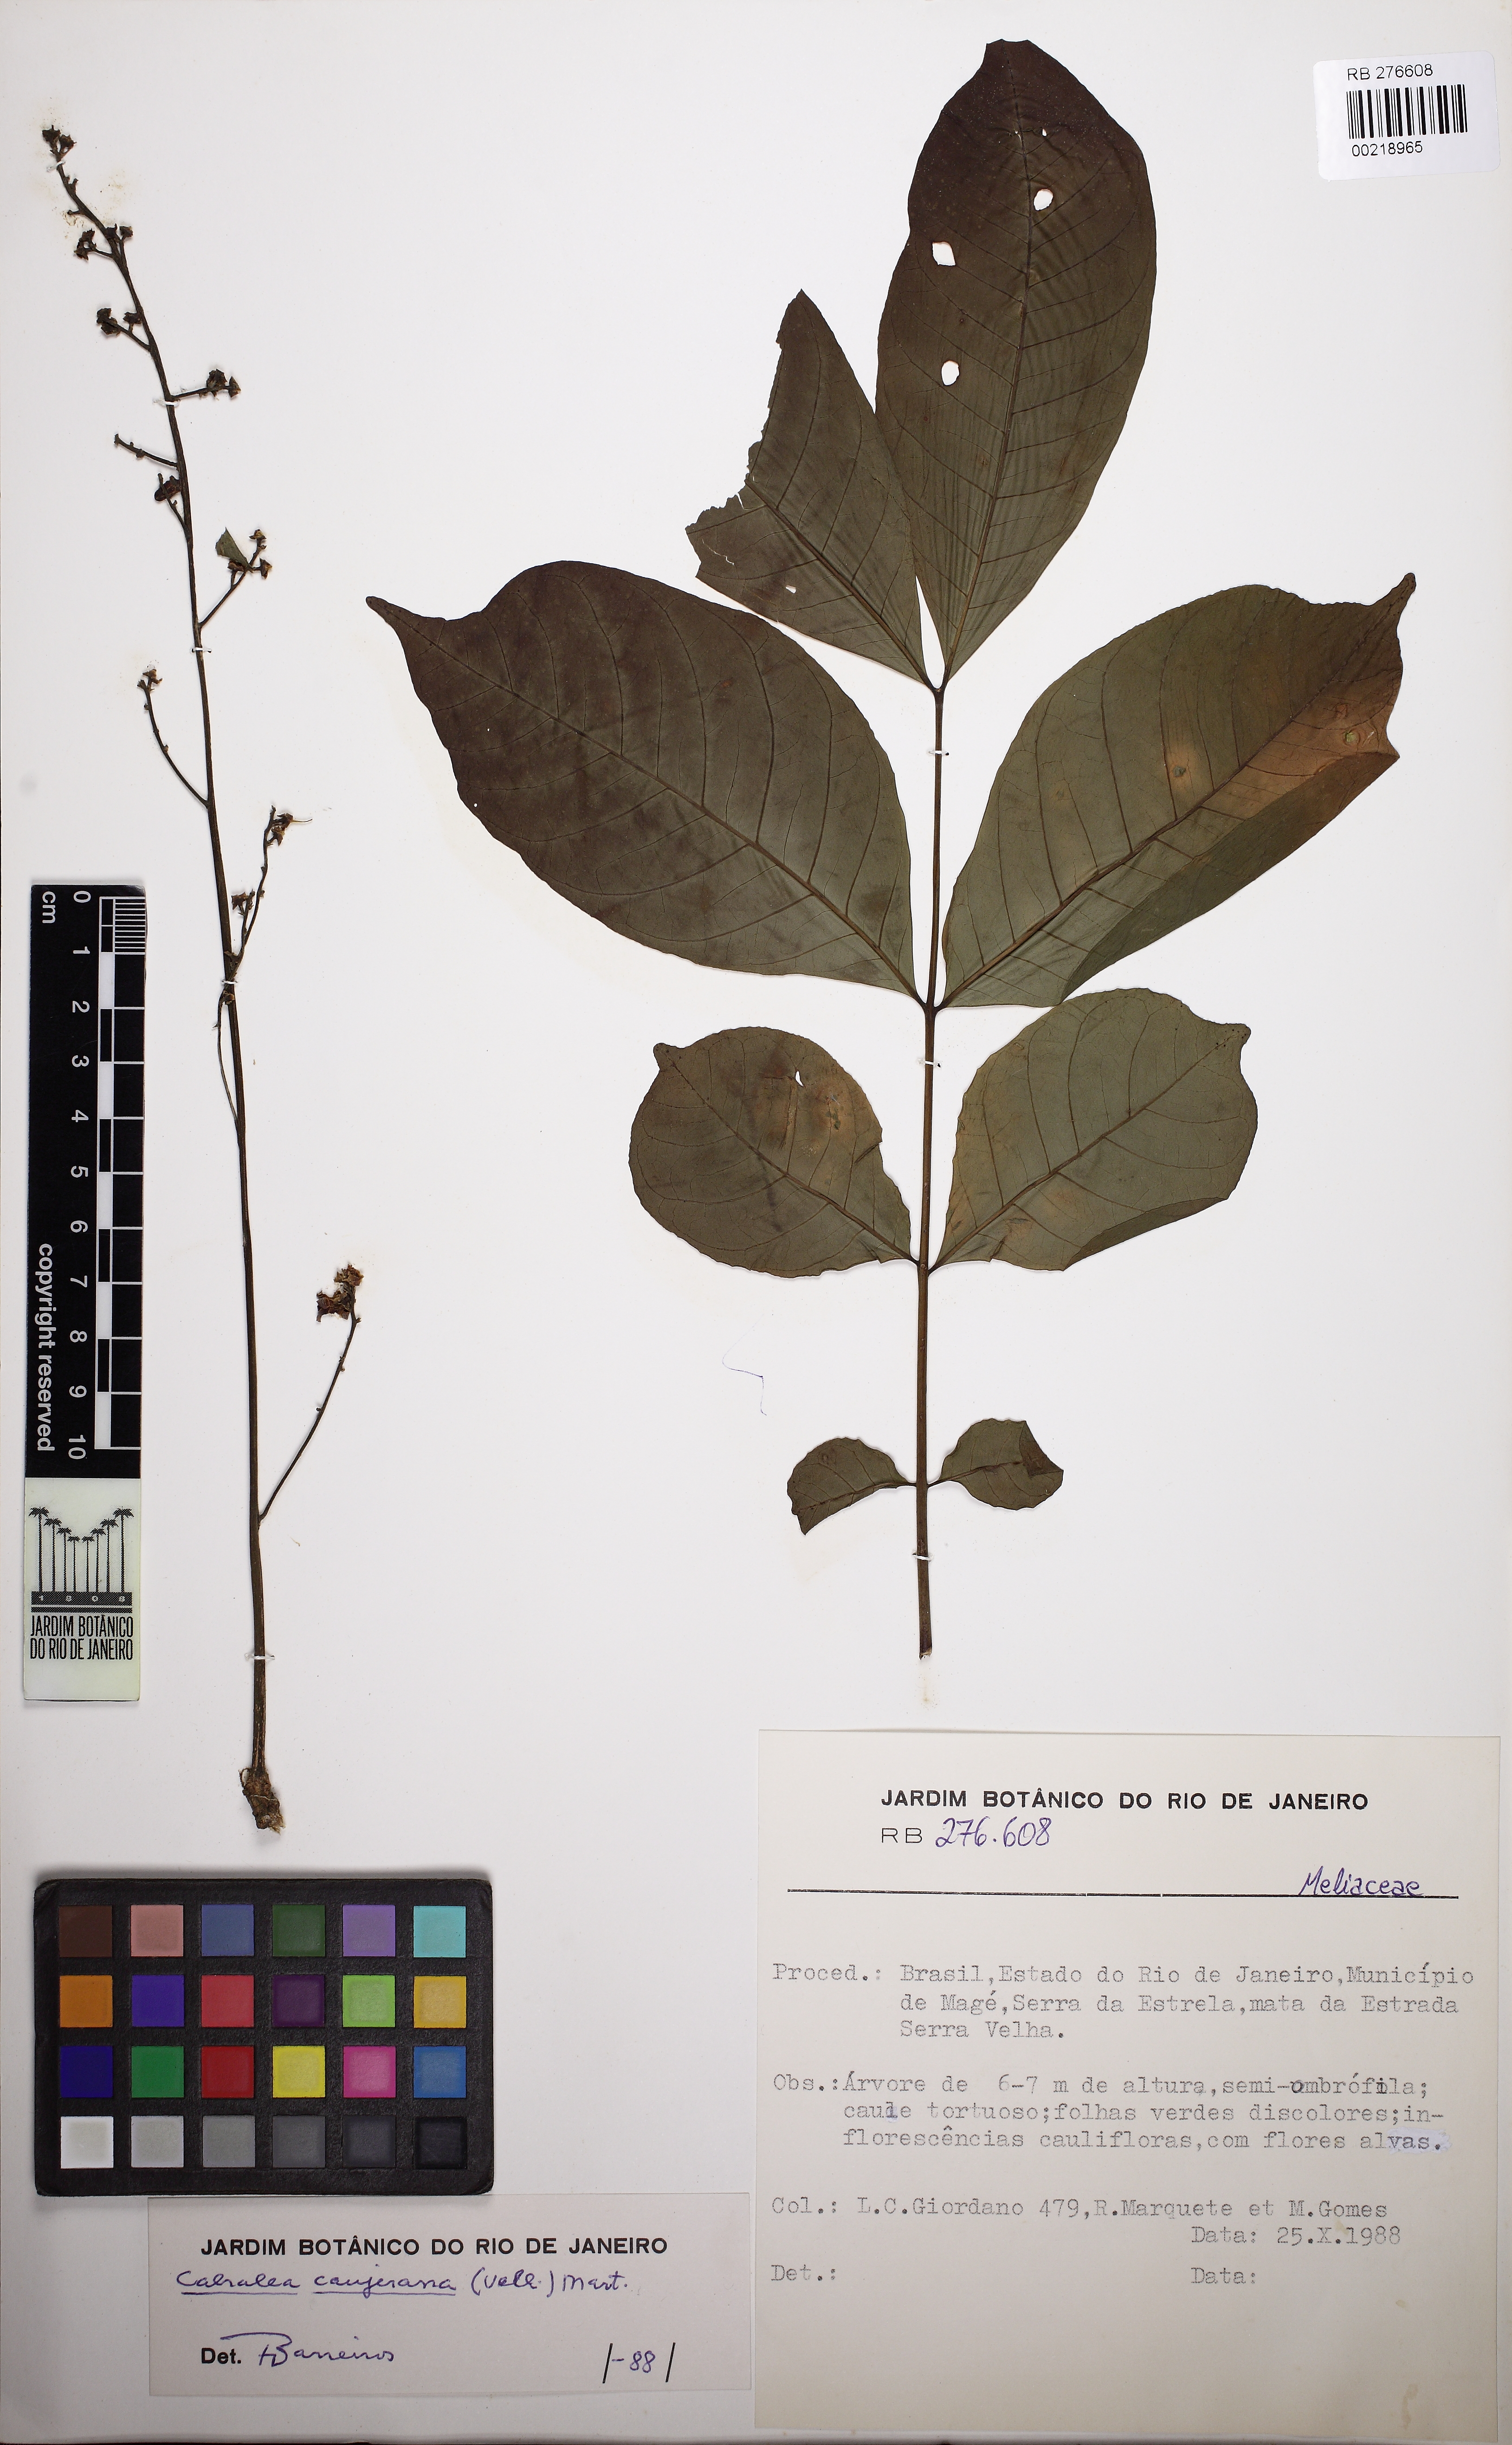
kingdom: Plantae
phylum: Tracheophyta
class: Magnoliopsida
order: Sapindales
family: Meliaceae
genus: Cabralea
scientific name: Cabralea canjerana
